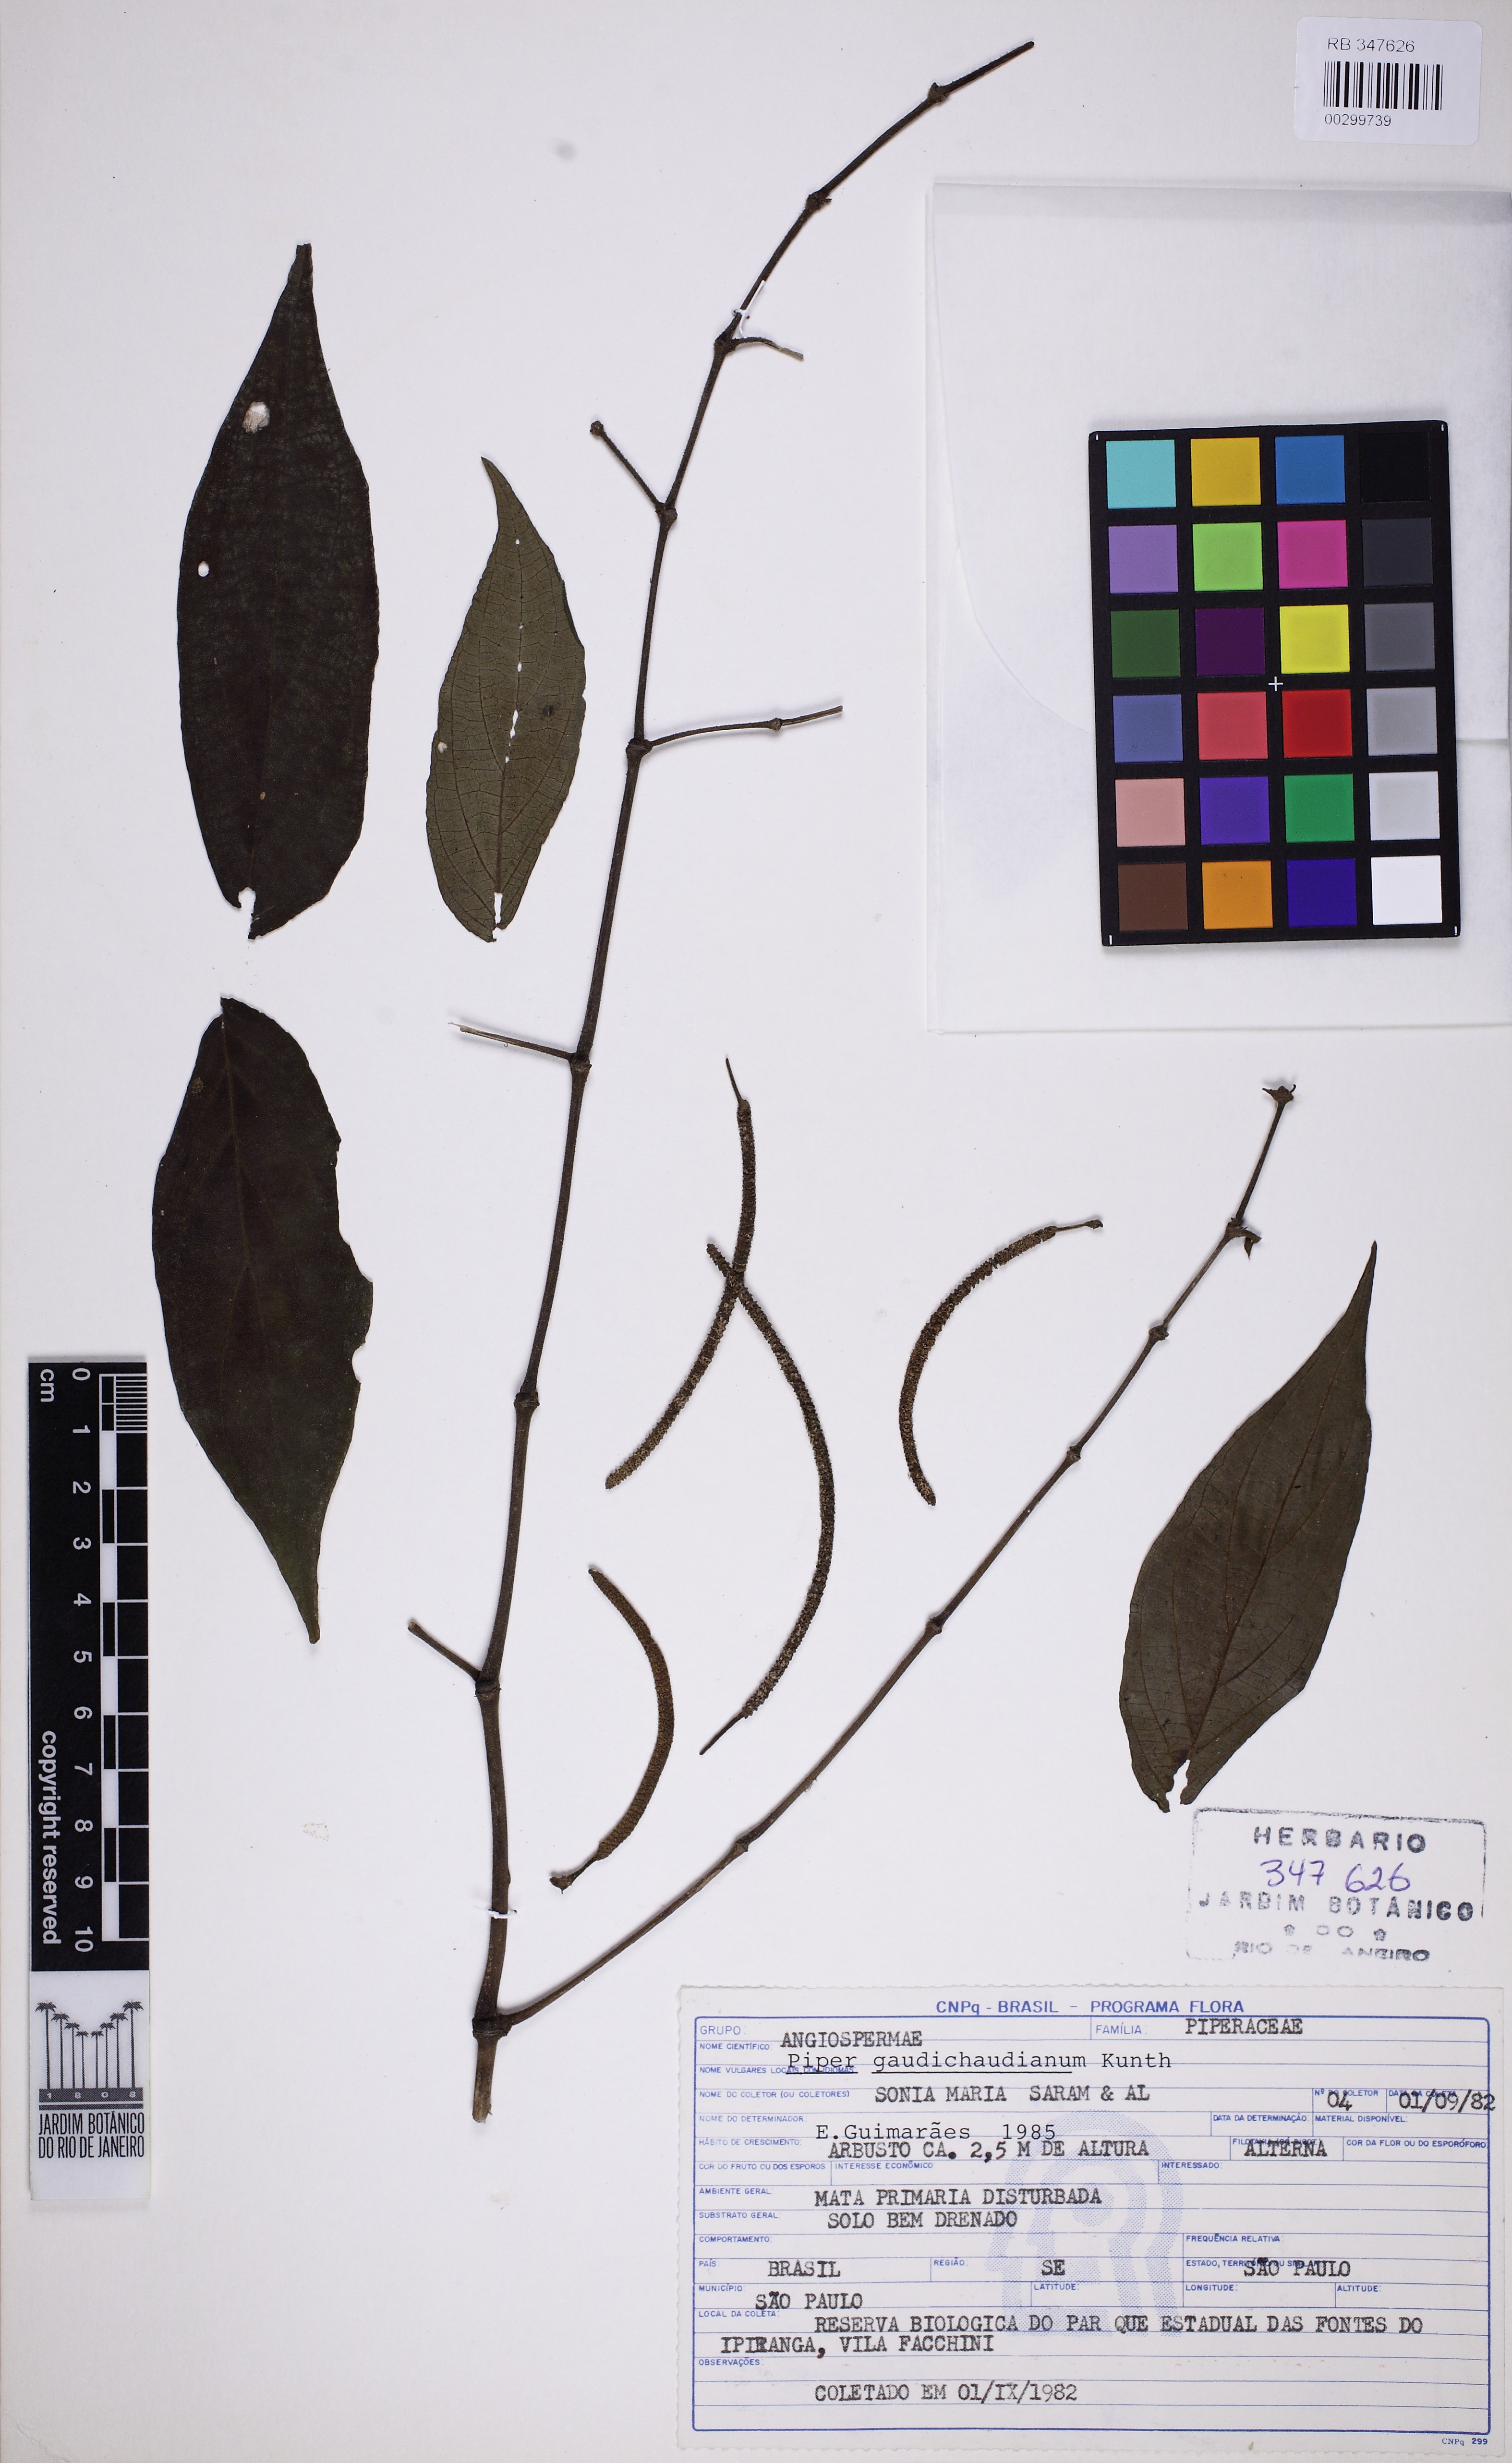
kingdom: Plantae
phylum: Tracheophyta
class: Magnoliopsida
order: Piperales
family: Piperaceae
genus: Piper
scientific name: Piper gaudichaudianum
